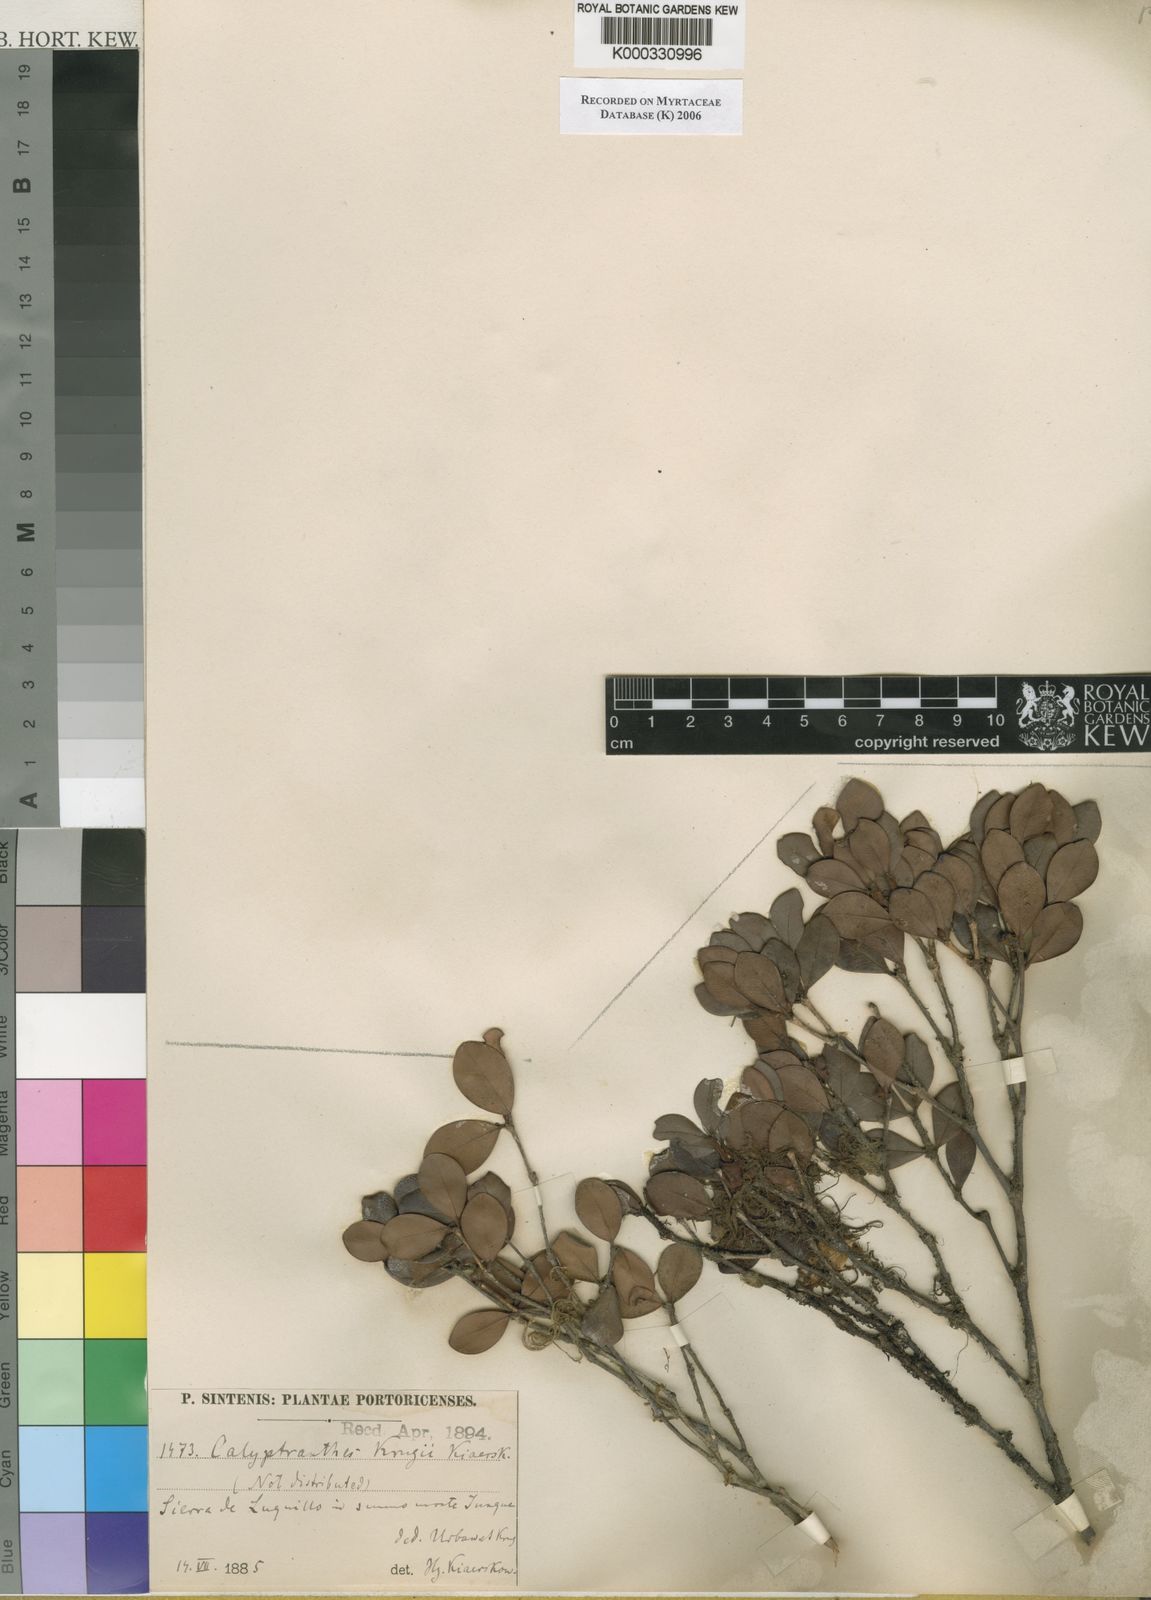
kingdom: Plantae
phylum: Tracheophyta
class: Magnoliopsida
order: Myrtales
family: Myrtaceae
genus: Myrcia
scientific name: Myrcia krugii
